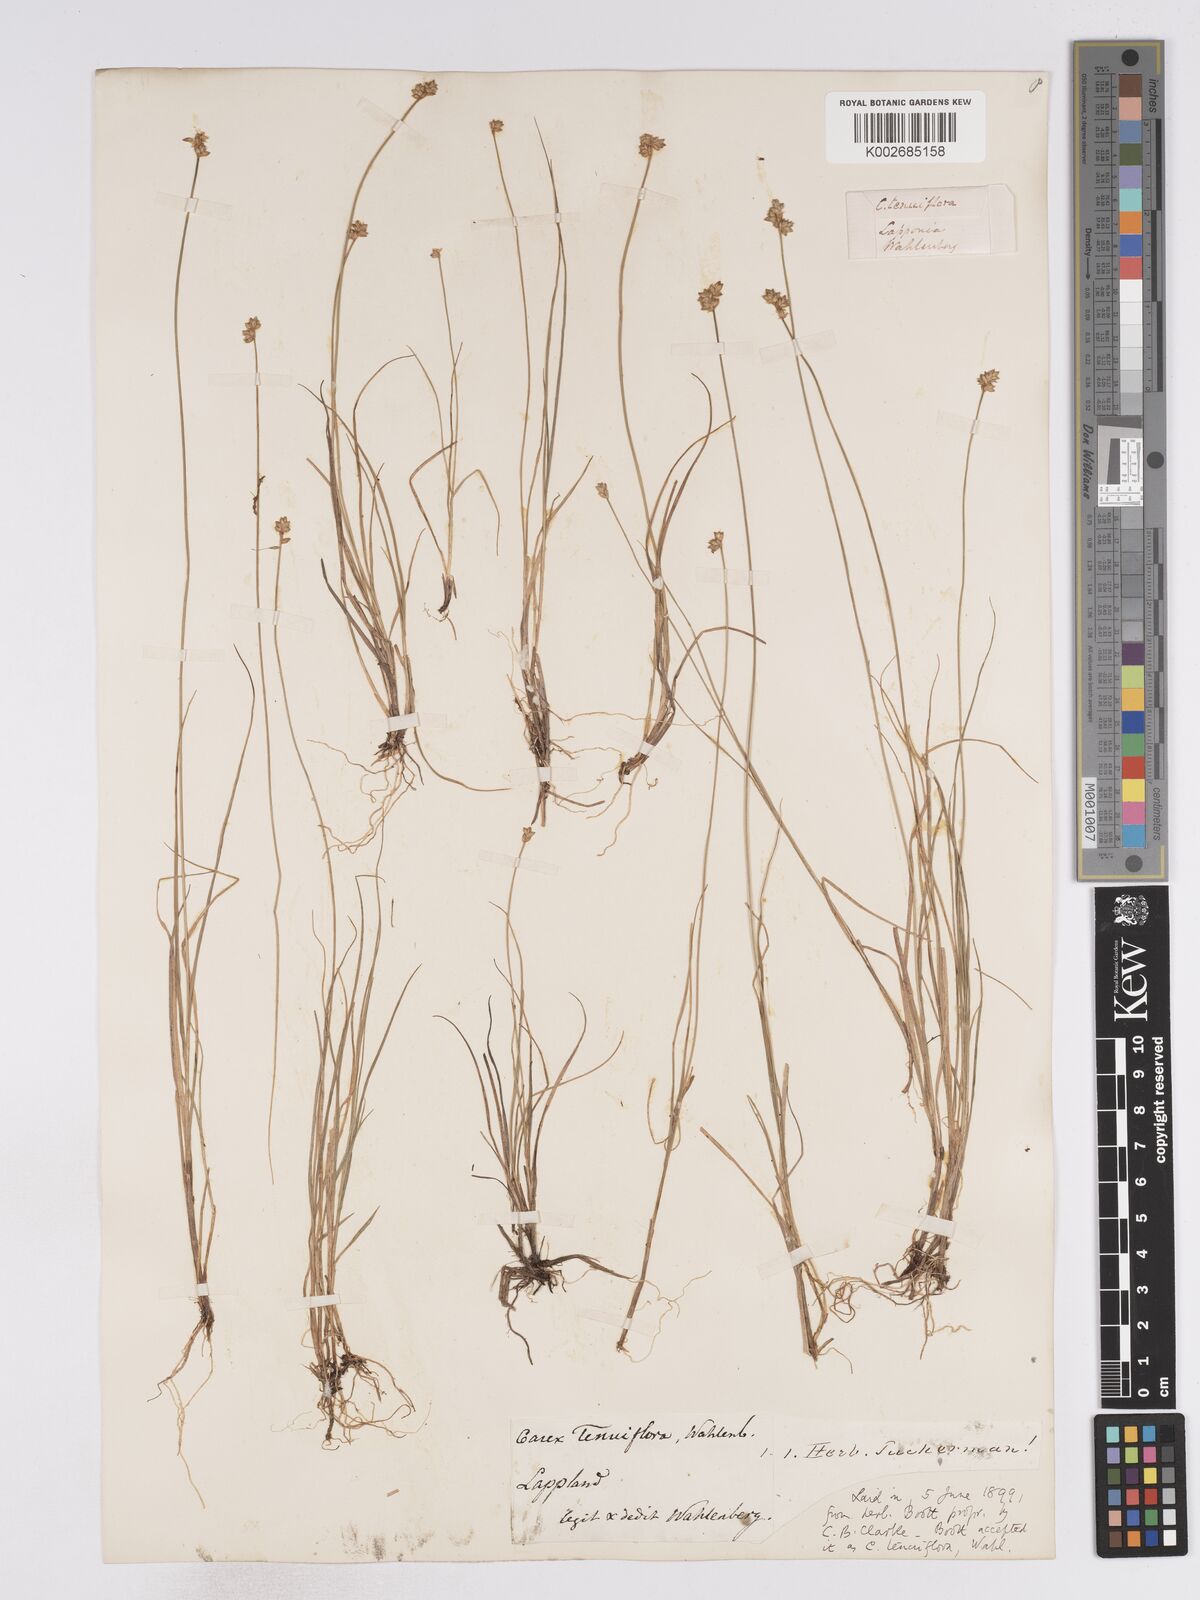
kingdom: Plantae
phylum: Tracheophyta
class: Liliopsida
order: Poales
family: Cyperaceae
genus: Carex
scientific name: Carex tenuiflora
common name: Sparse-flowered sedge
